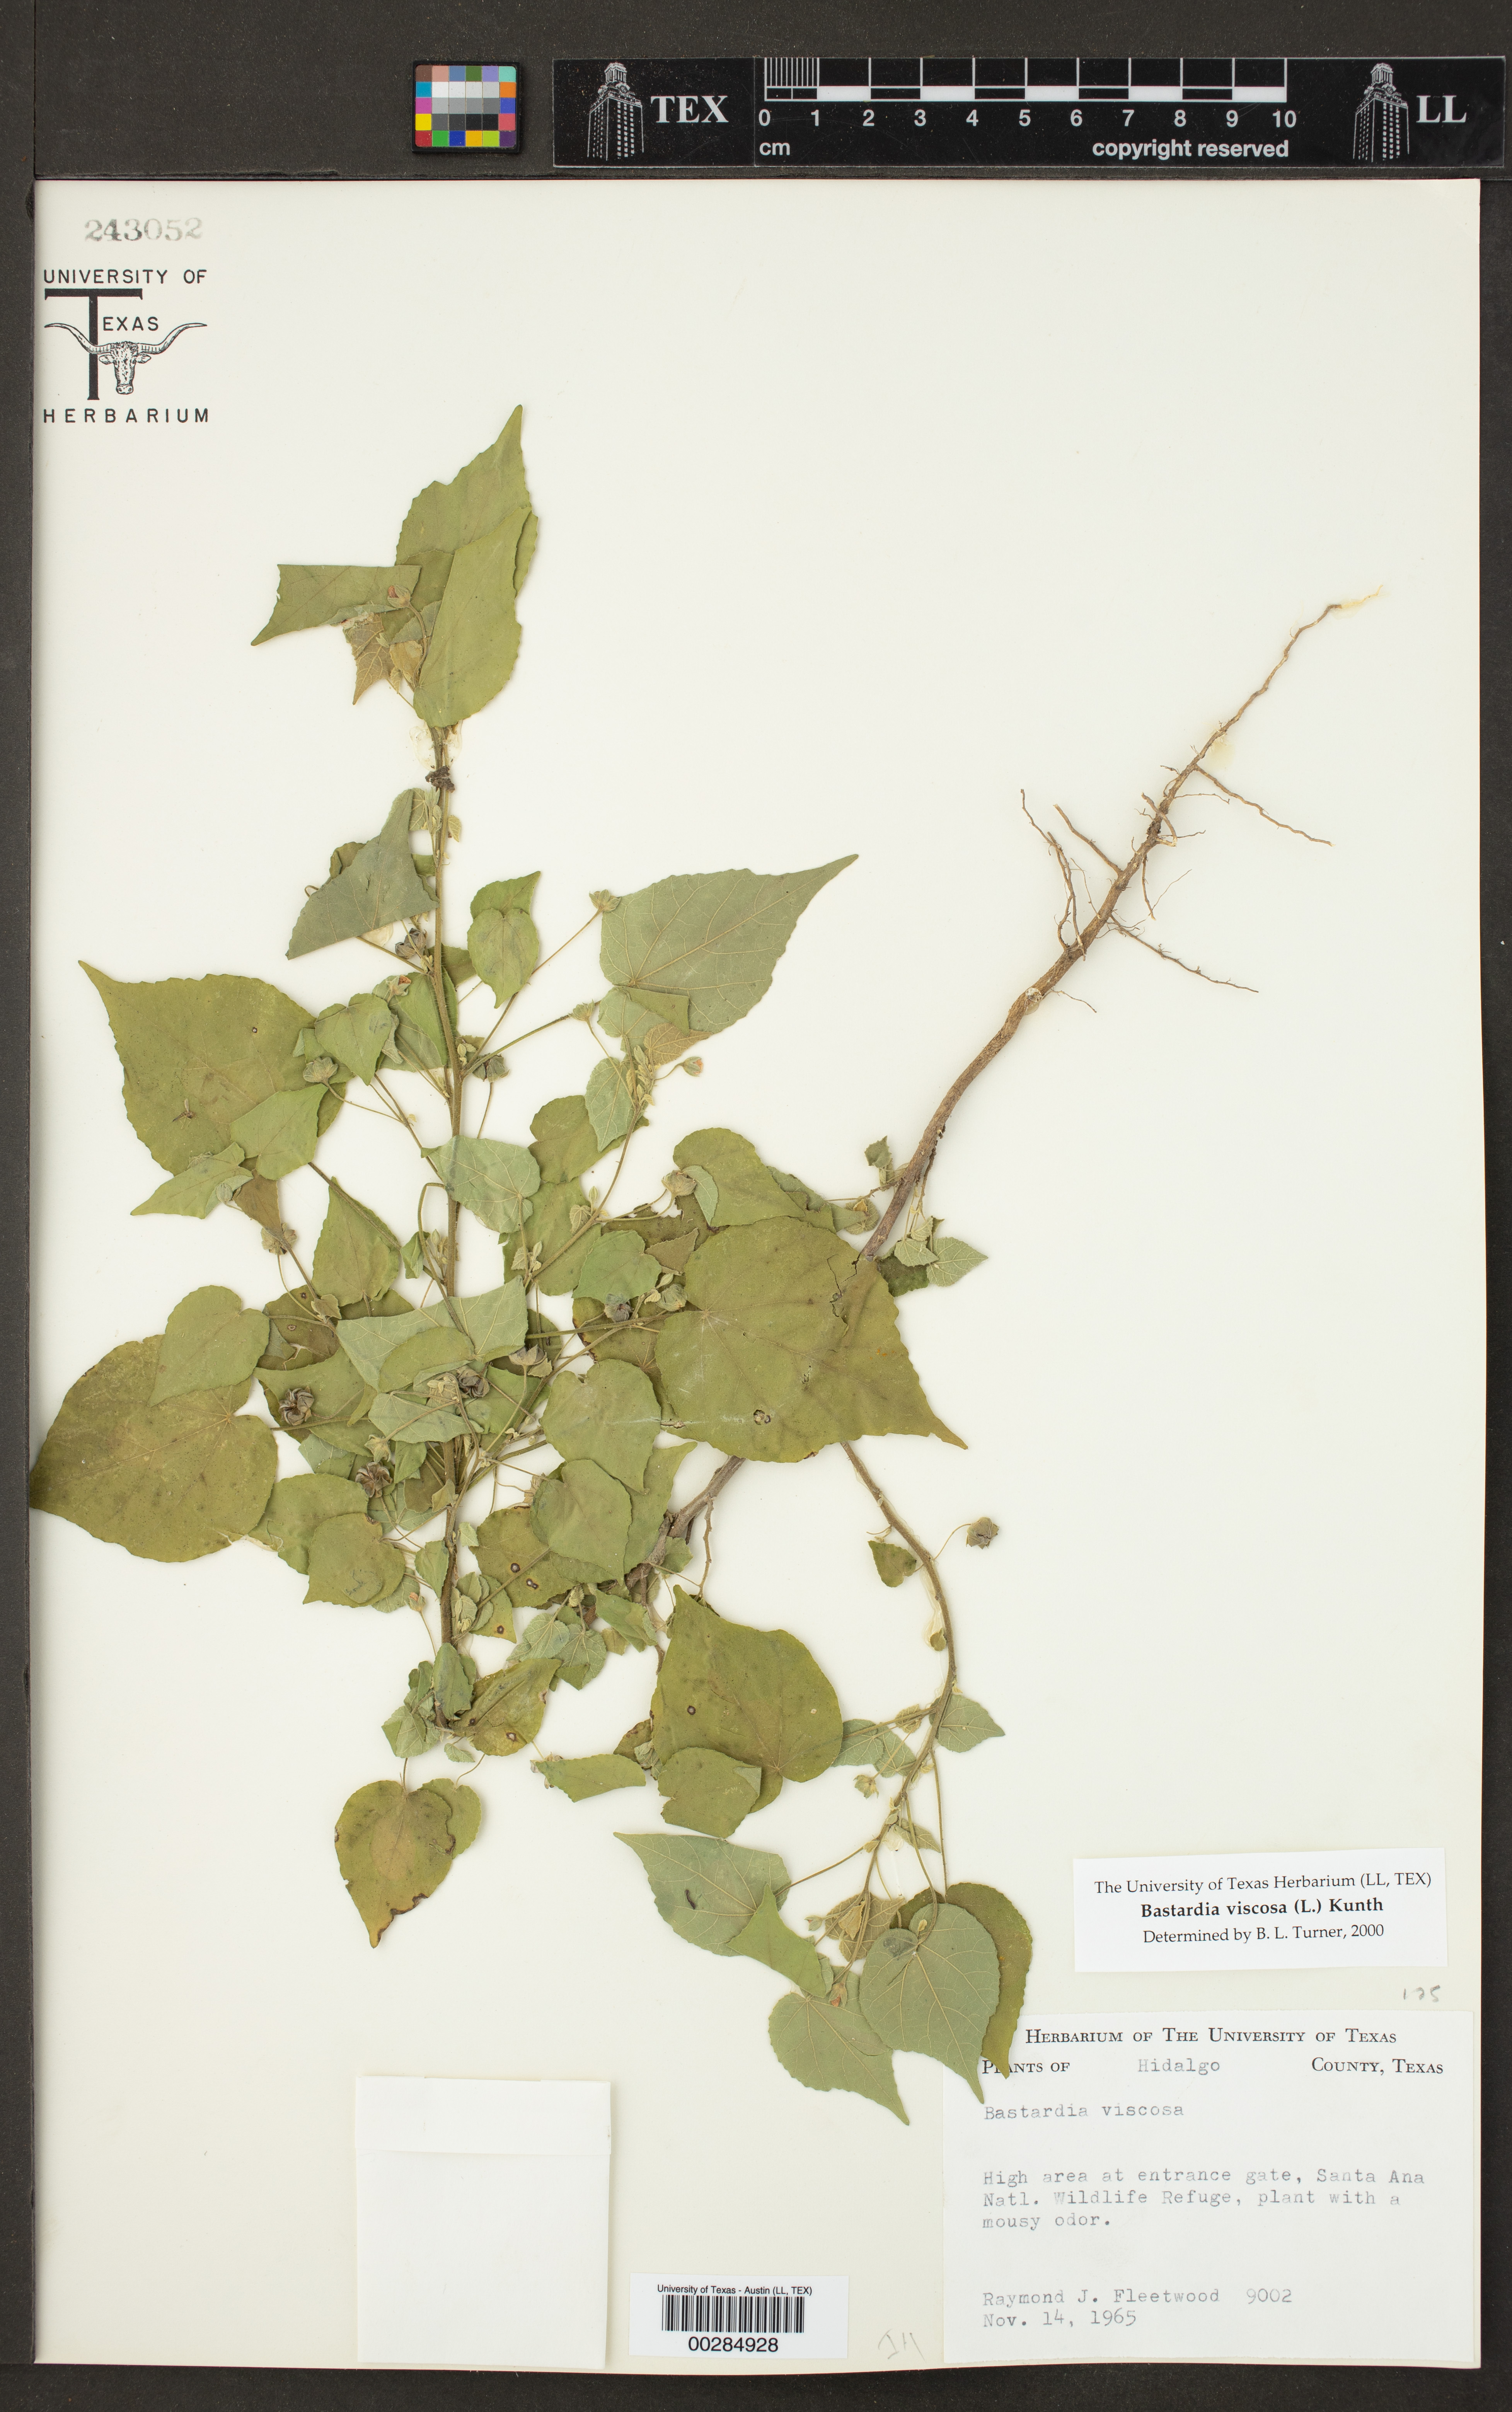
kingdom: Plantae
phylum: Tracheophyta
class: Magnoliopsida
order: Malvales
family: Malvaceae
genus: Abutilon
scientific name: Abutilon viscosum
